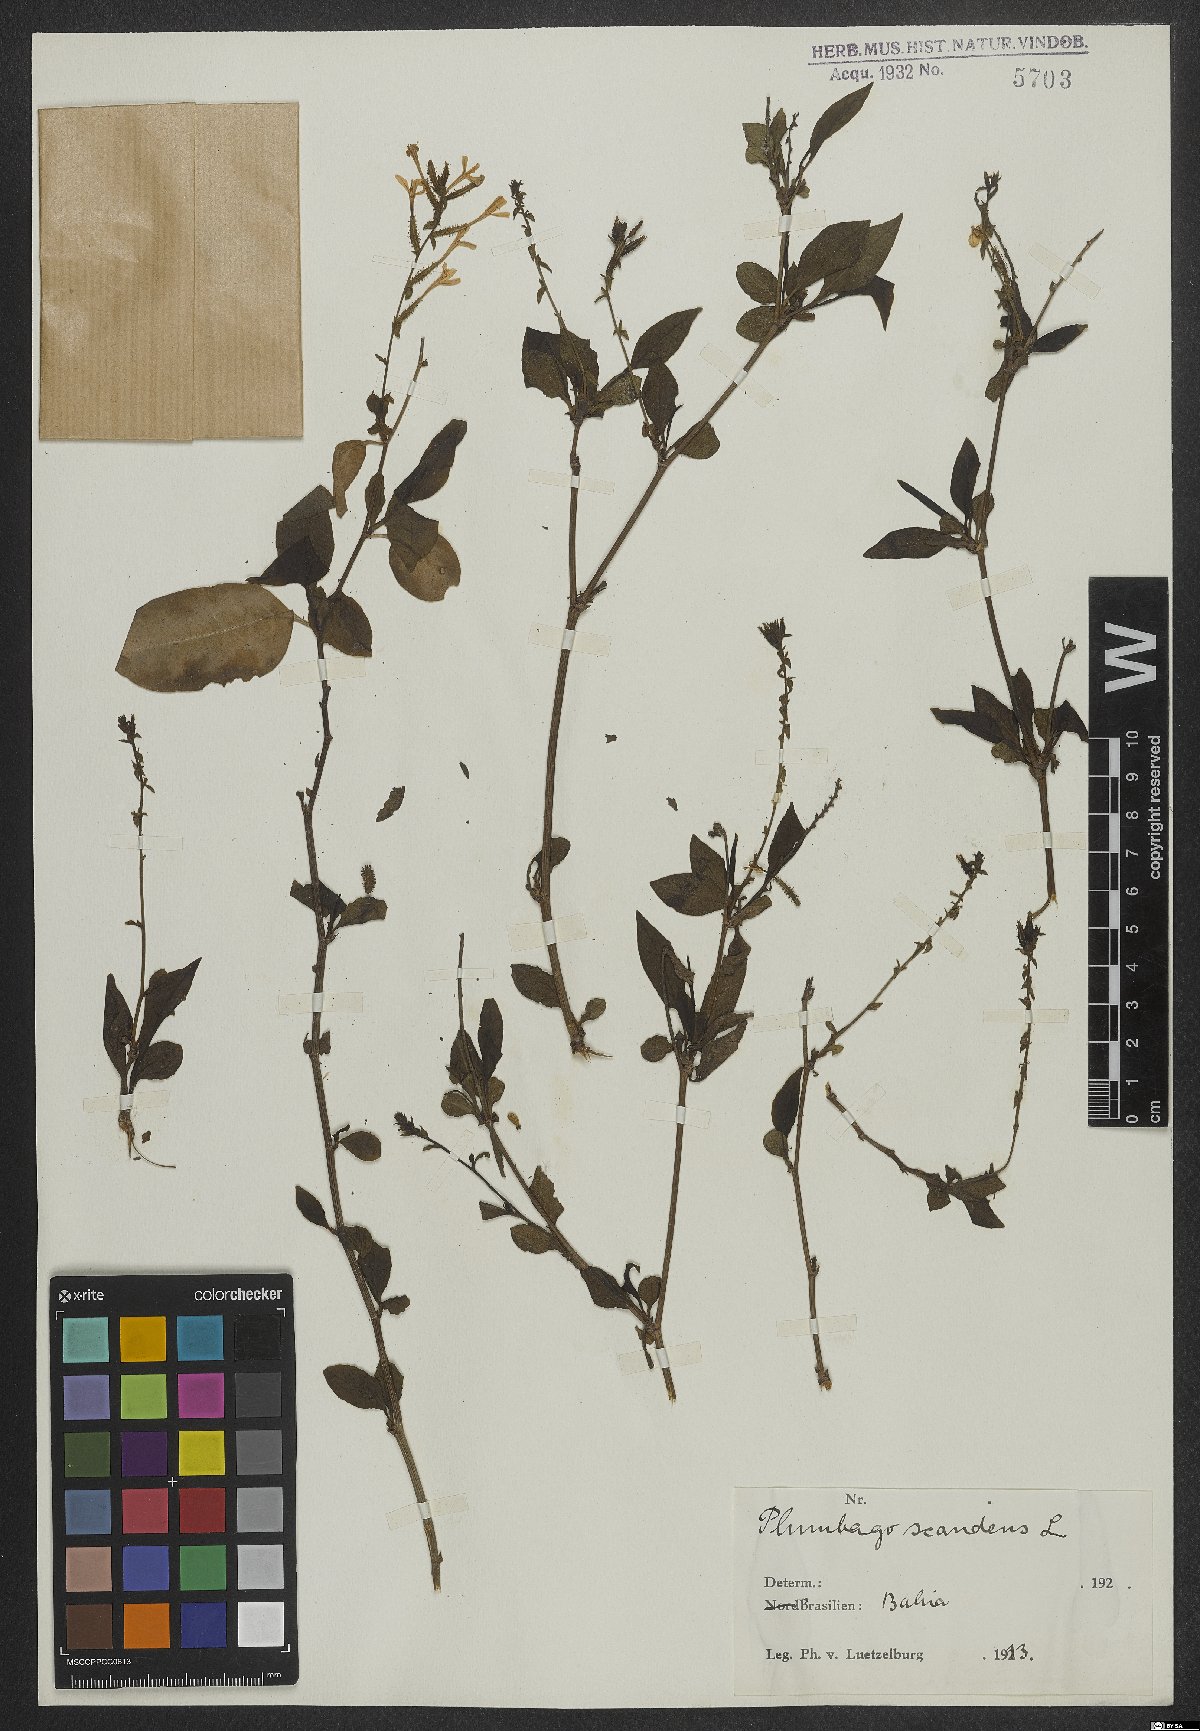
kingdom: Plantae
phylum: Tracheophyta
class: Magnoliopsida
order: Caryophyllales
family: Plumbaginaceae
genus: Plumbago
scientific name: Plumbago zeylanica
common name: Doctorbush
